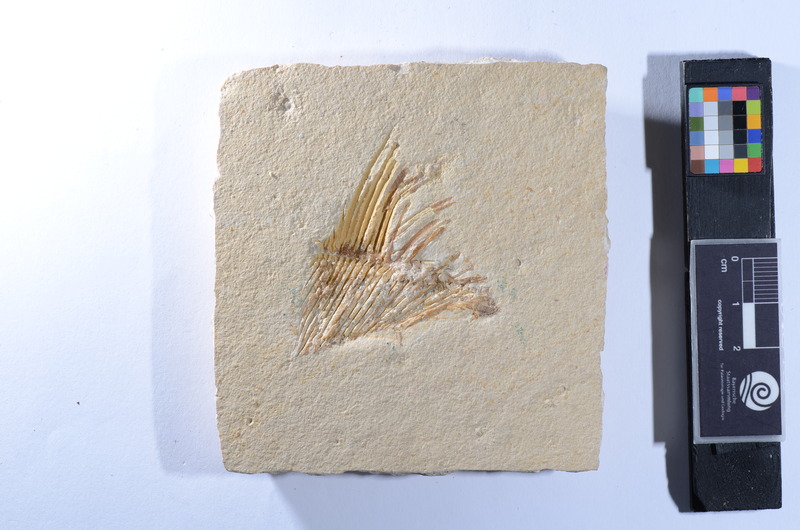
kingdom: Animalia
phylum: Chordata
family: Pycnodontes
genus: Macromesodon
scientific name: Macromesodon
